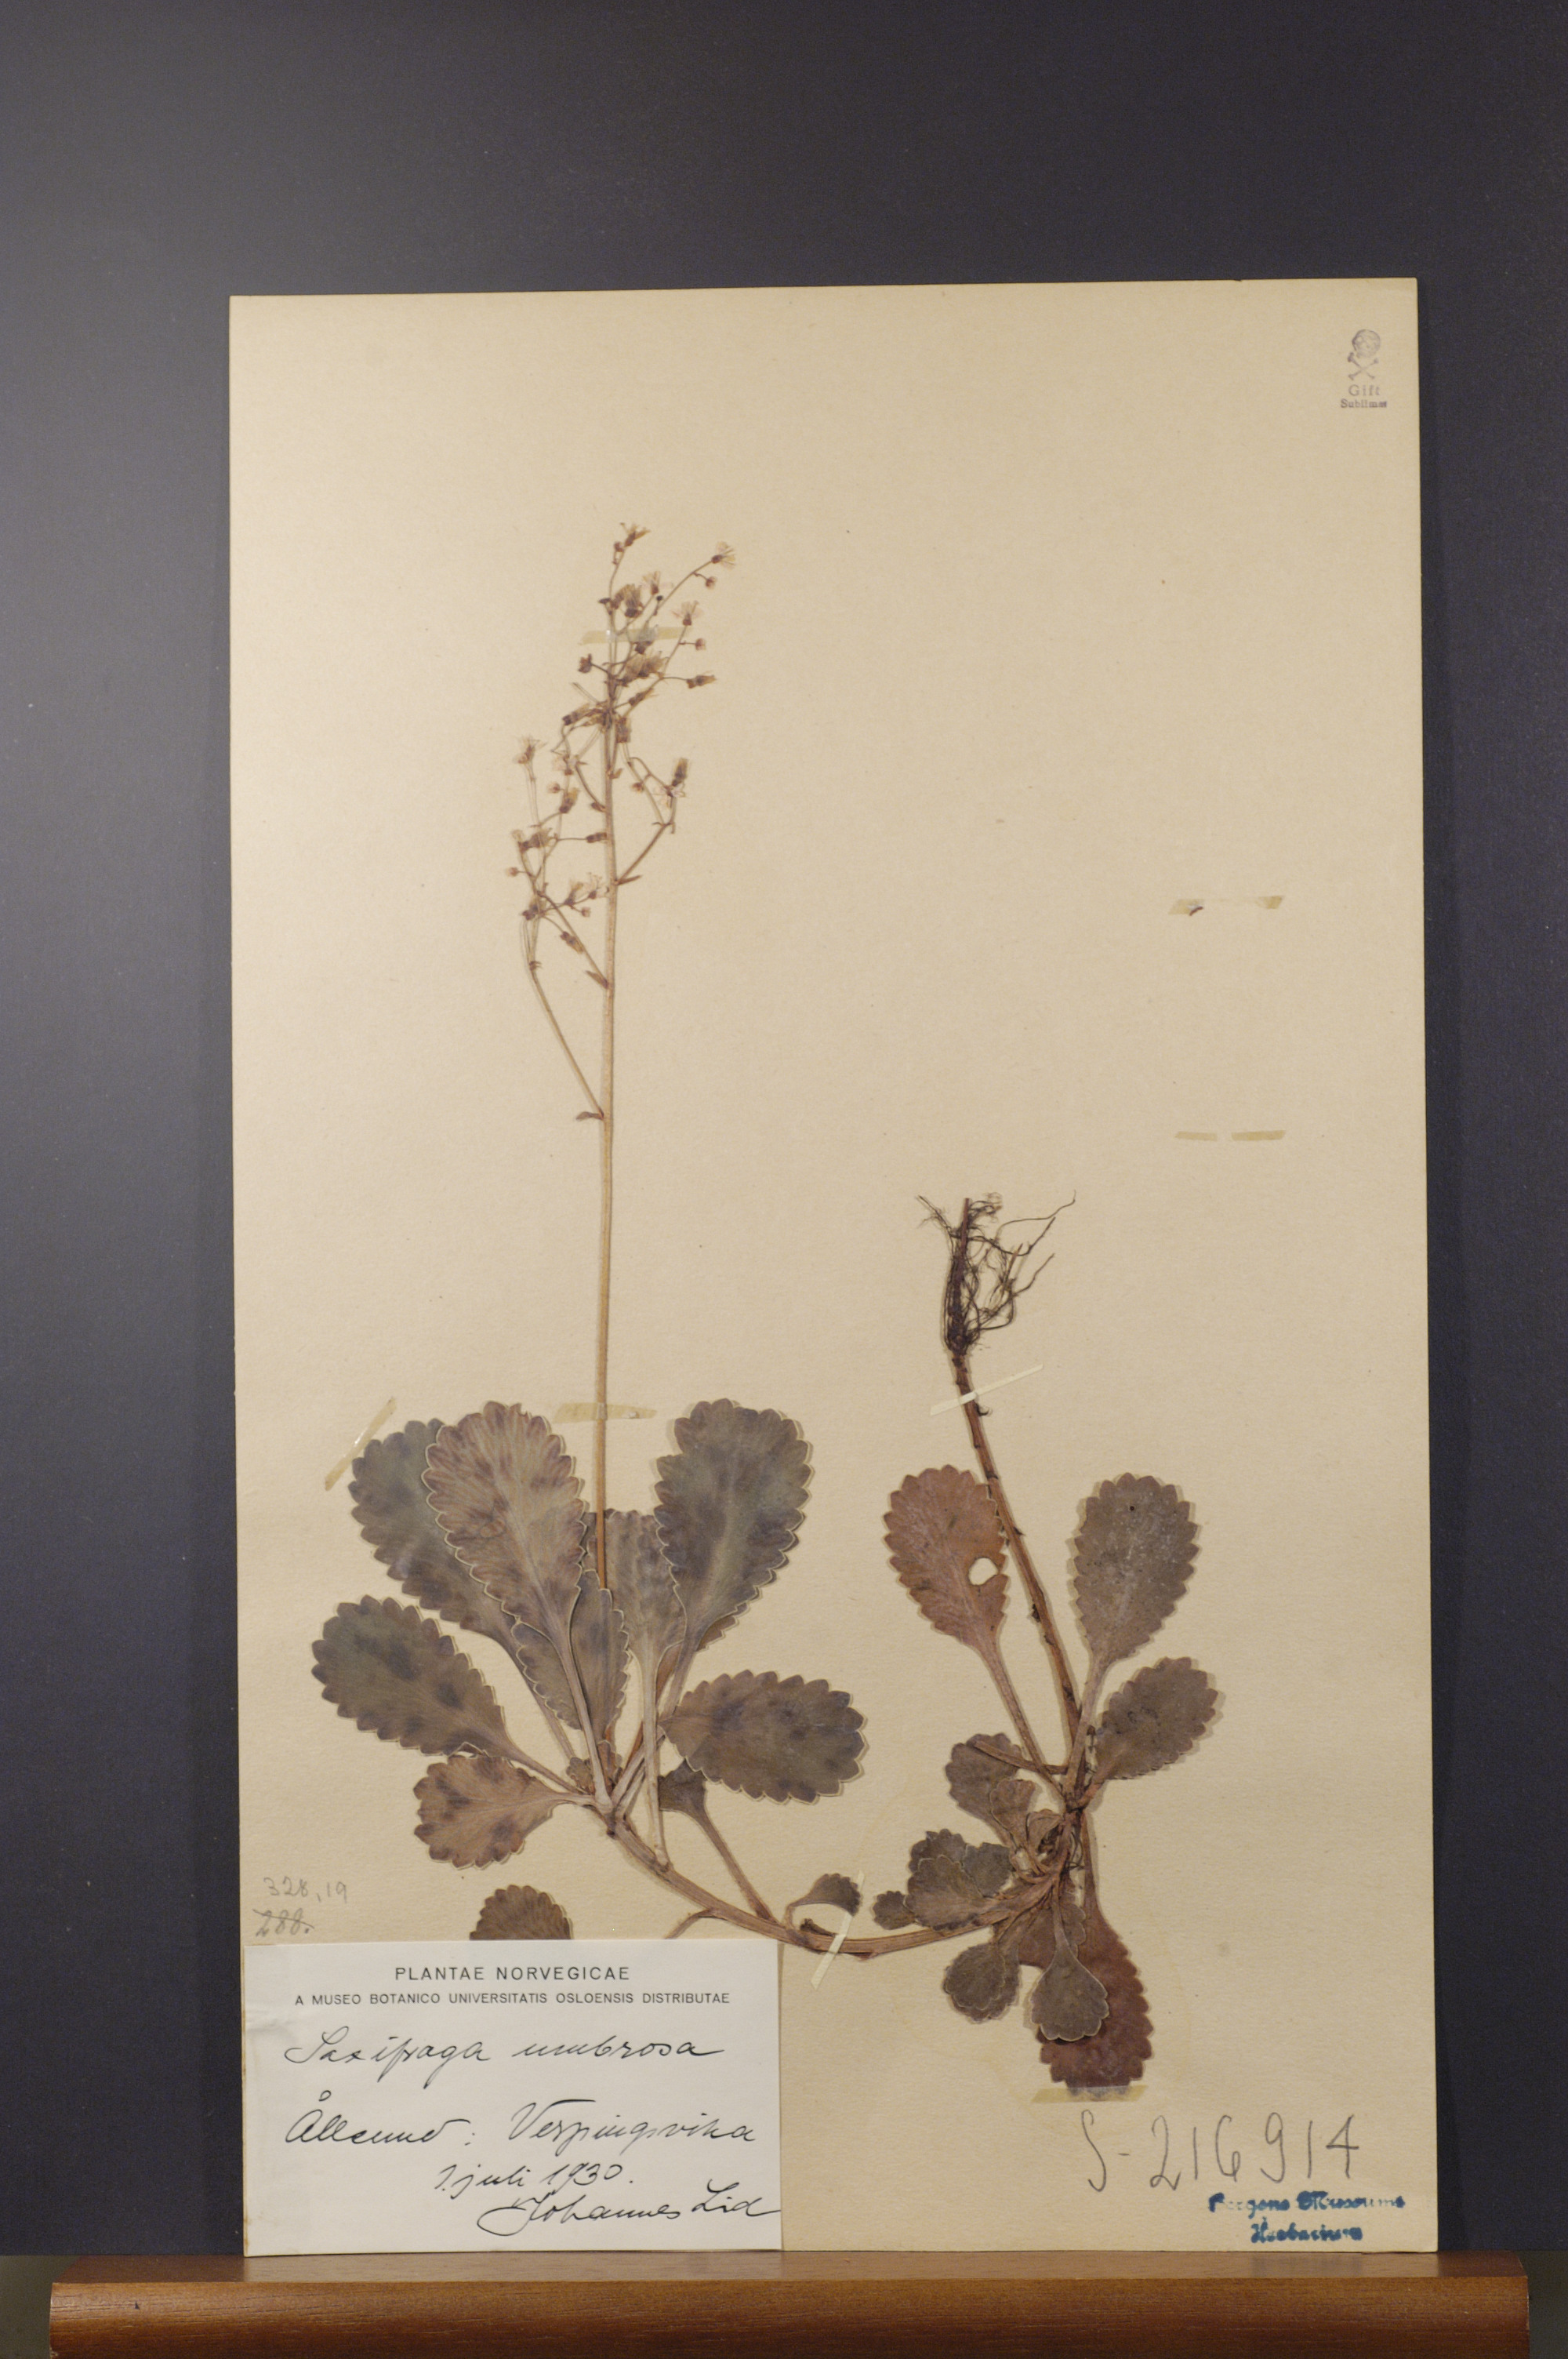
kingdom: Plantae
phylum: Tracheophyta
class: Magnoliopsida
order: Saxifragales
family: Saxifragaceae
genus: Saxifraga
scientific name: Saxifraga umbrosa
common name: Pyrenean saxifrage
